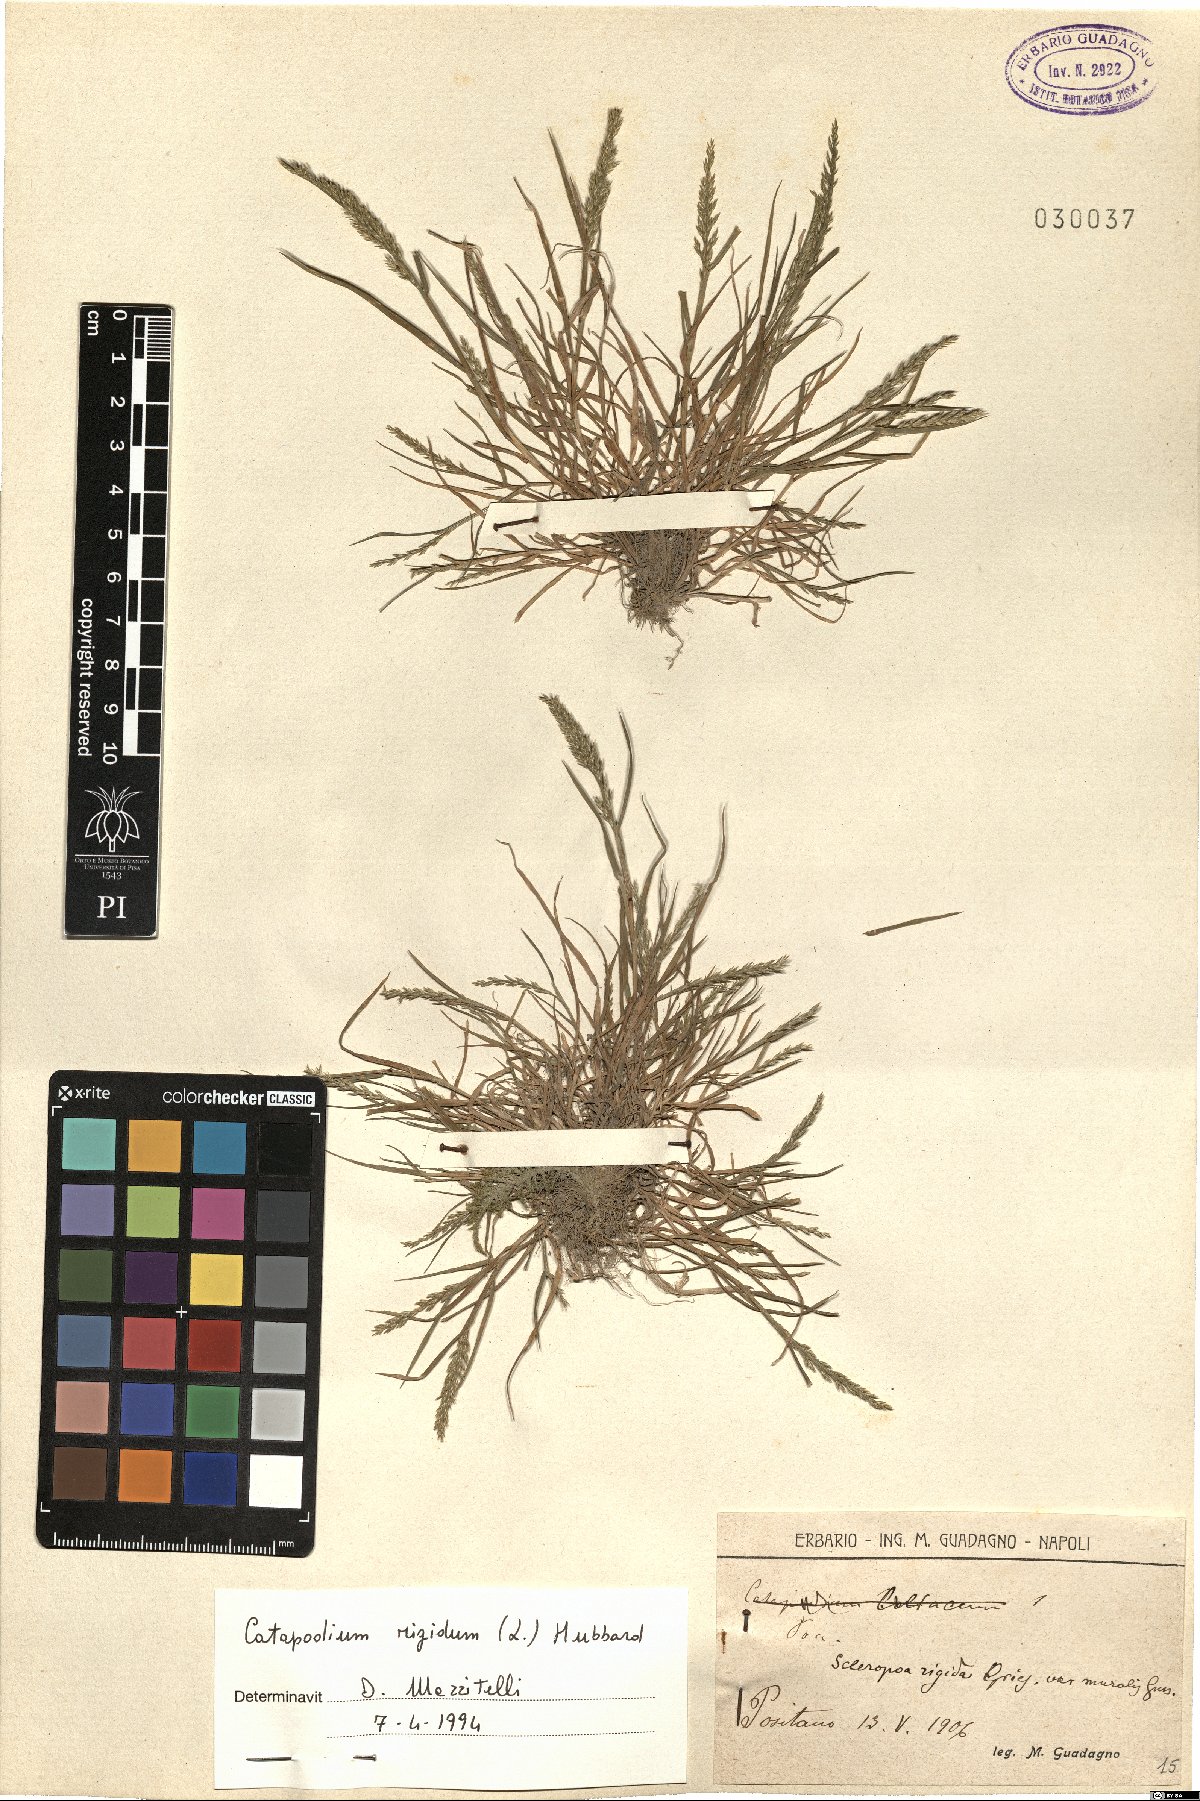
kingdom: Plantae
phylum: Tracheophyta
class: Liliopsida
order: Poales
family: Poaceae
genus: Catapodium
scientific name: Catapodium rigidum
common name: Fern-grass
